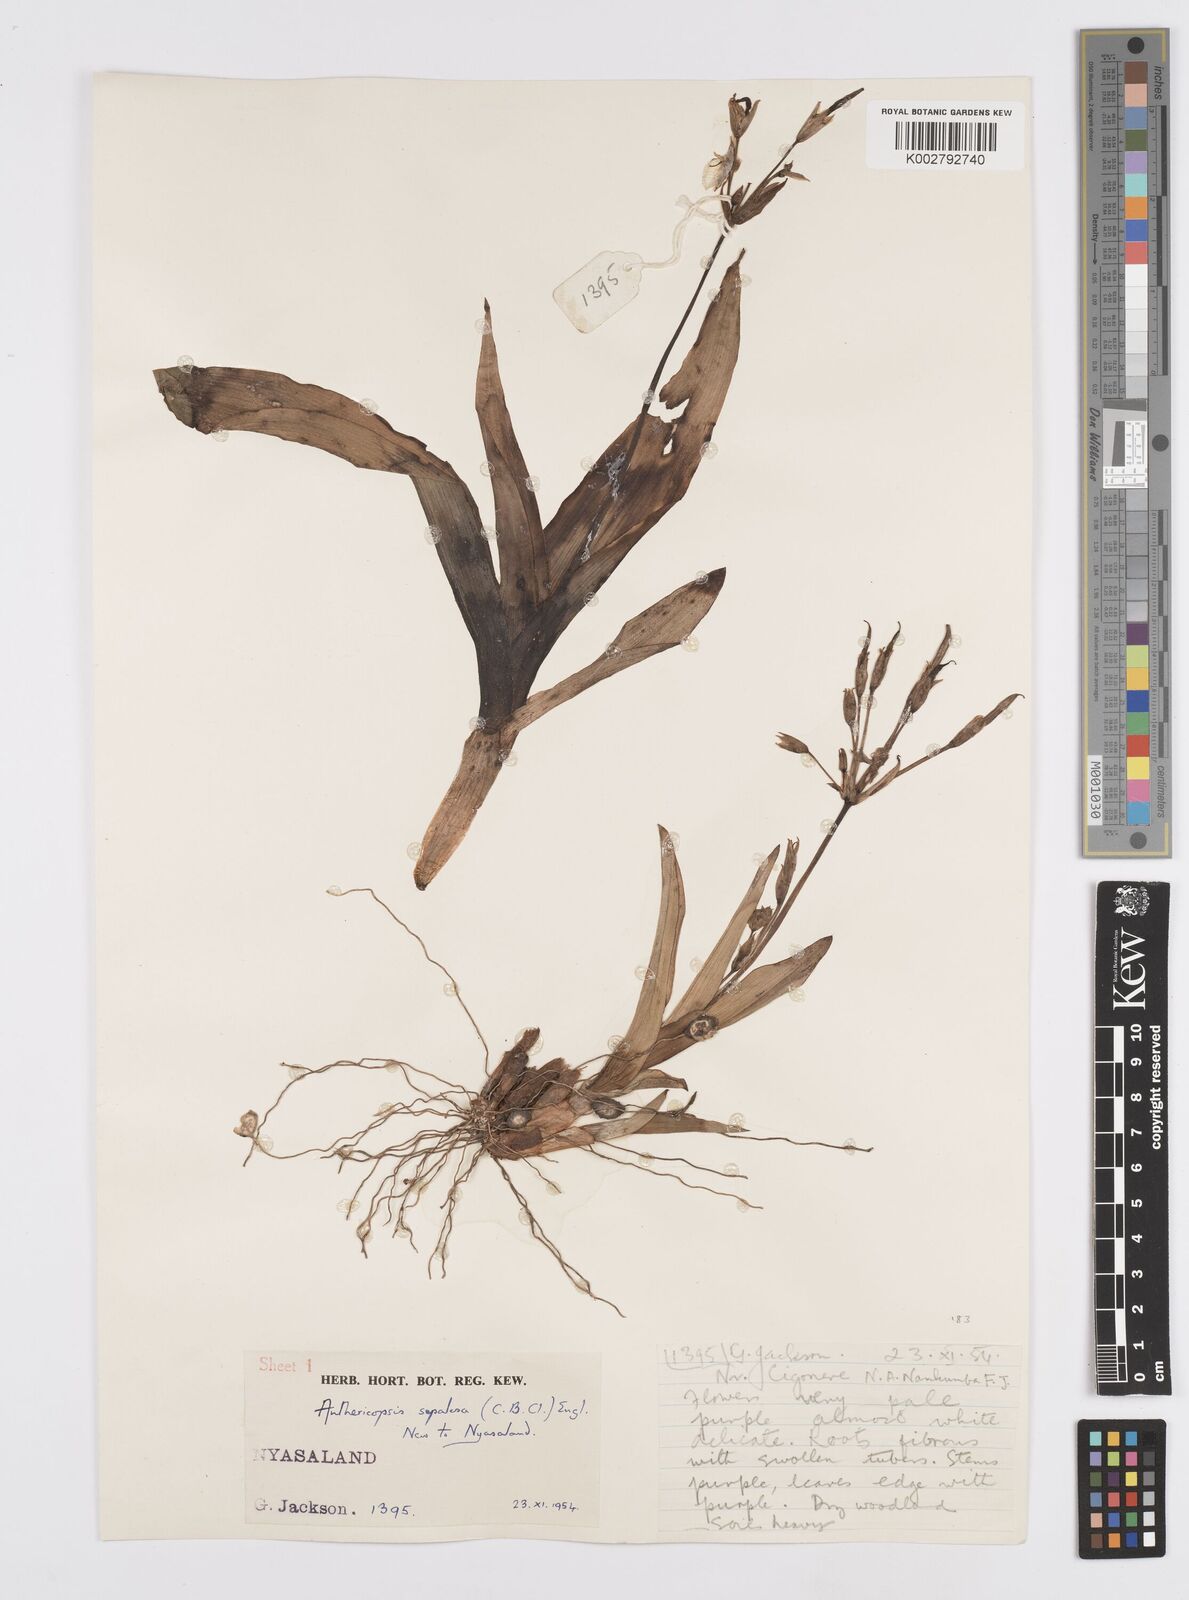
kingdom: Plantae
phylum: Tracheophyta
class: Liliopsida
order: Commelinales
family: Commelinaceae
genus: Anthericopsis
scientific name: Anthericopsis sepalosa
